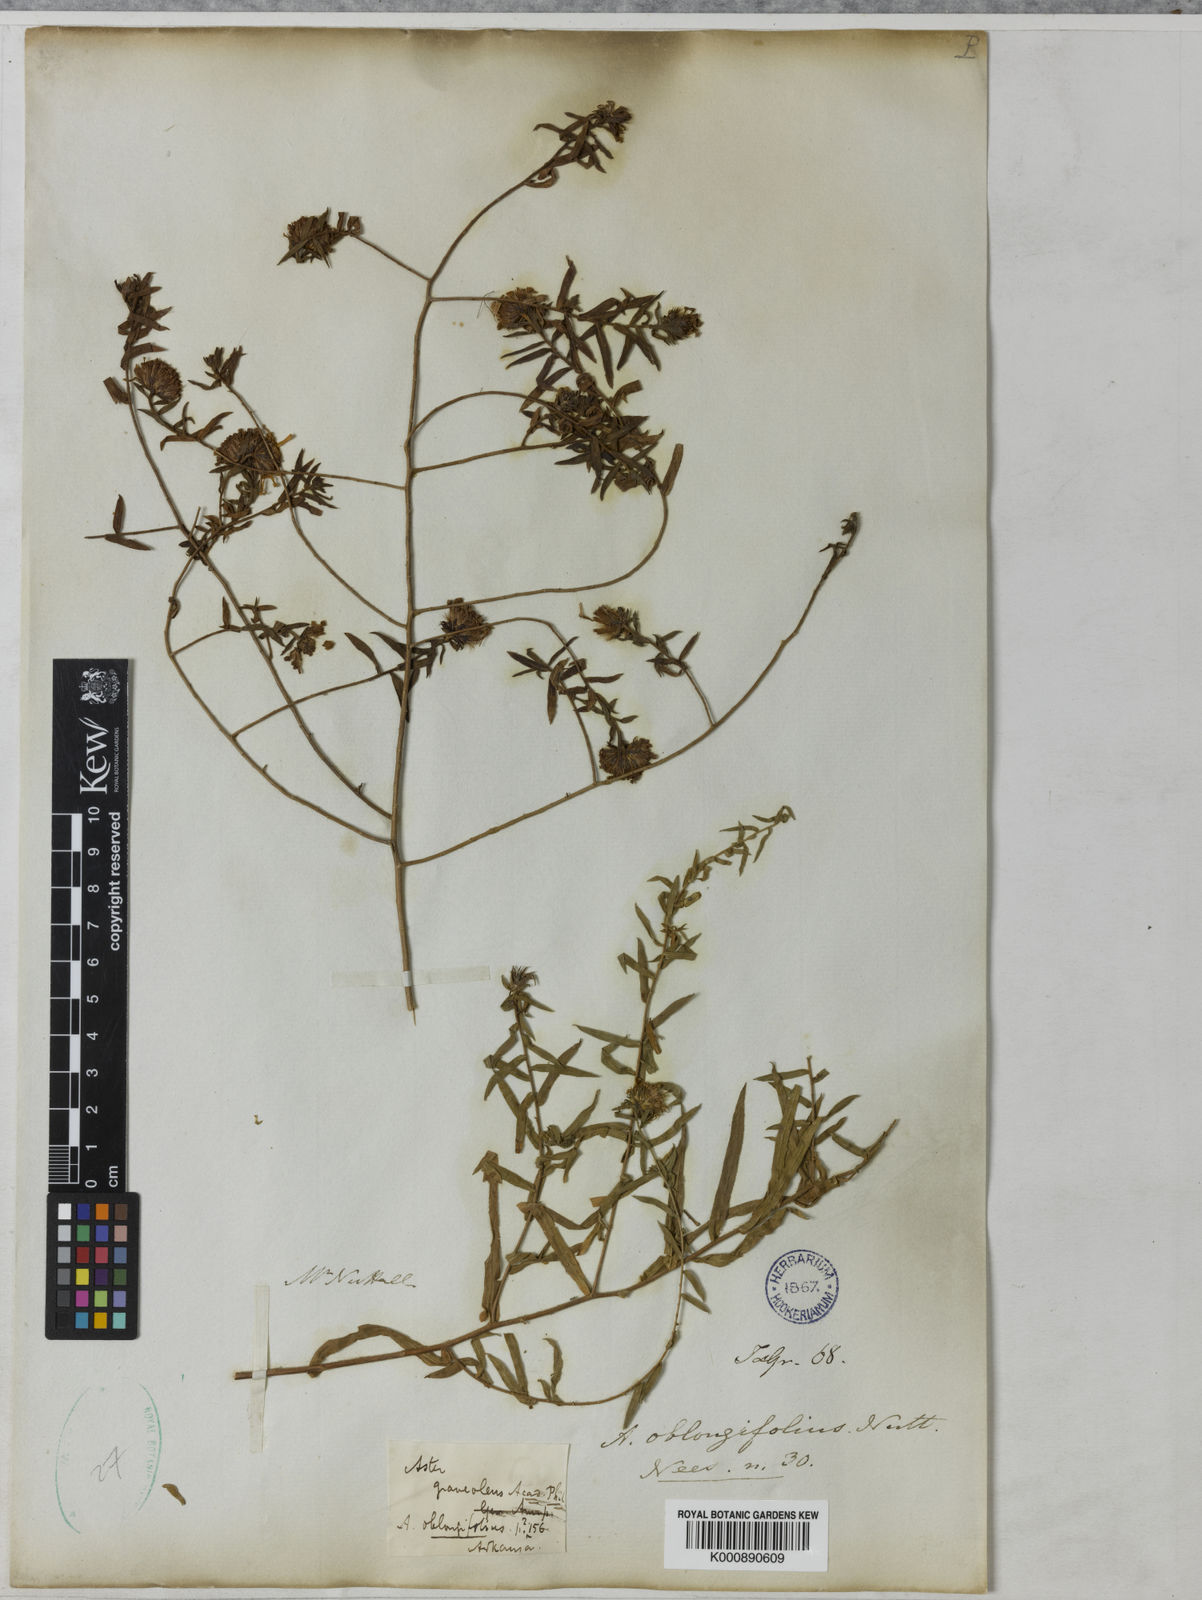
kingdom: Plantae
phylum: Tracheophyta
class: Magnoliopsida
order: Asterales
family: Asteraceae
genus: Symphyotrichum
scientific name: Symphyotrichum oblongifolium
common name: Aromatic aster
